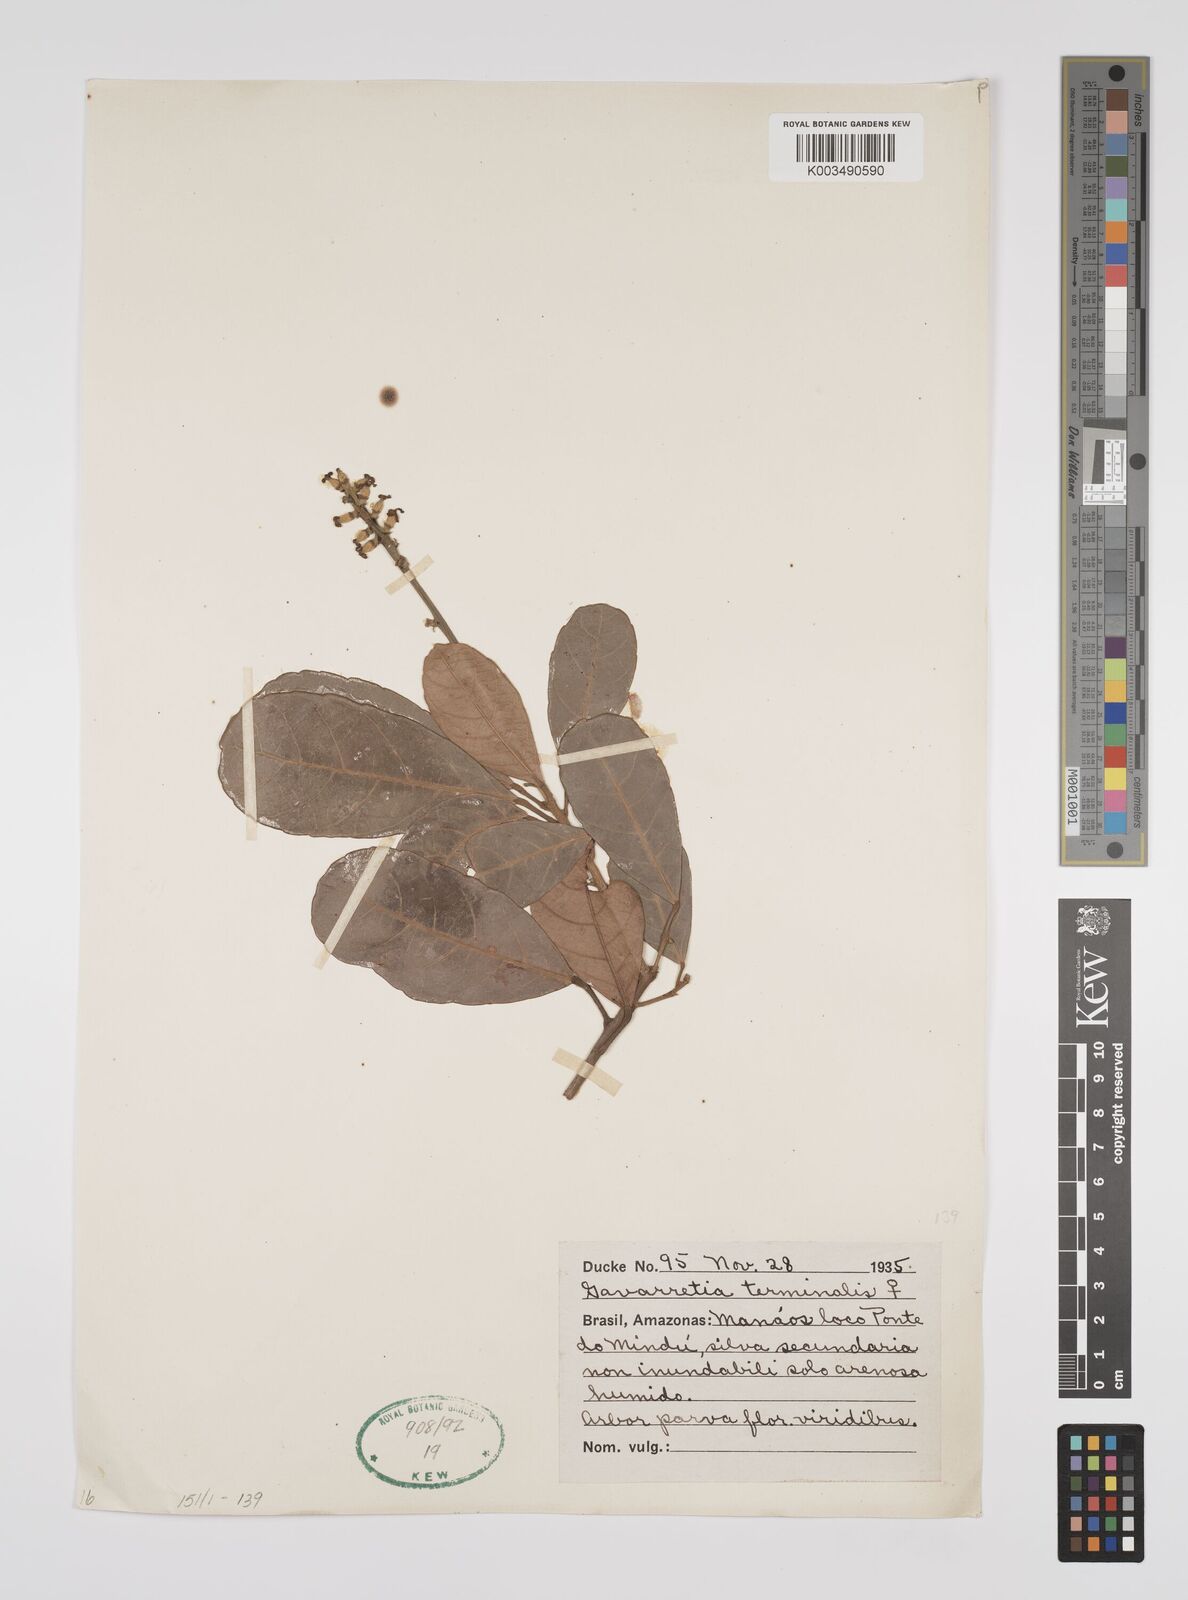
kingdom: Plantae
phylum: Tracheophyta
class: Magnoliopsida
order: Malpighiales
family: Euphorbiaceae
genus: Conceveiba
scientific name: Conceveiba terminalis
